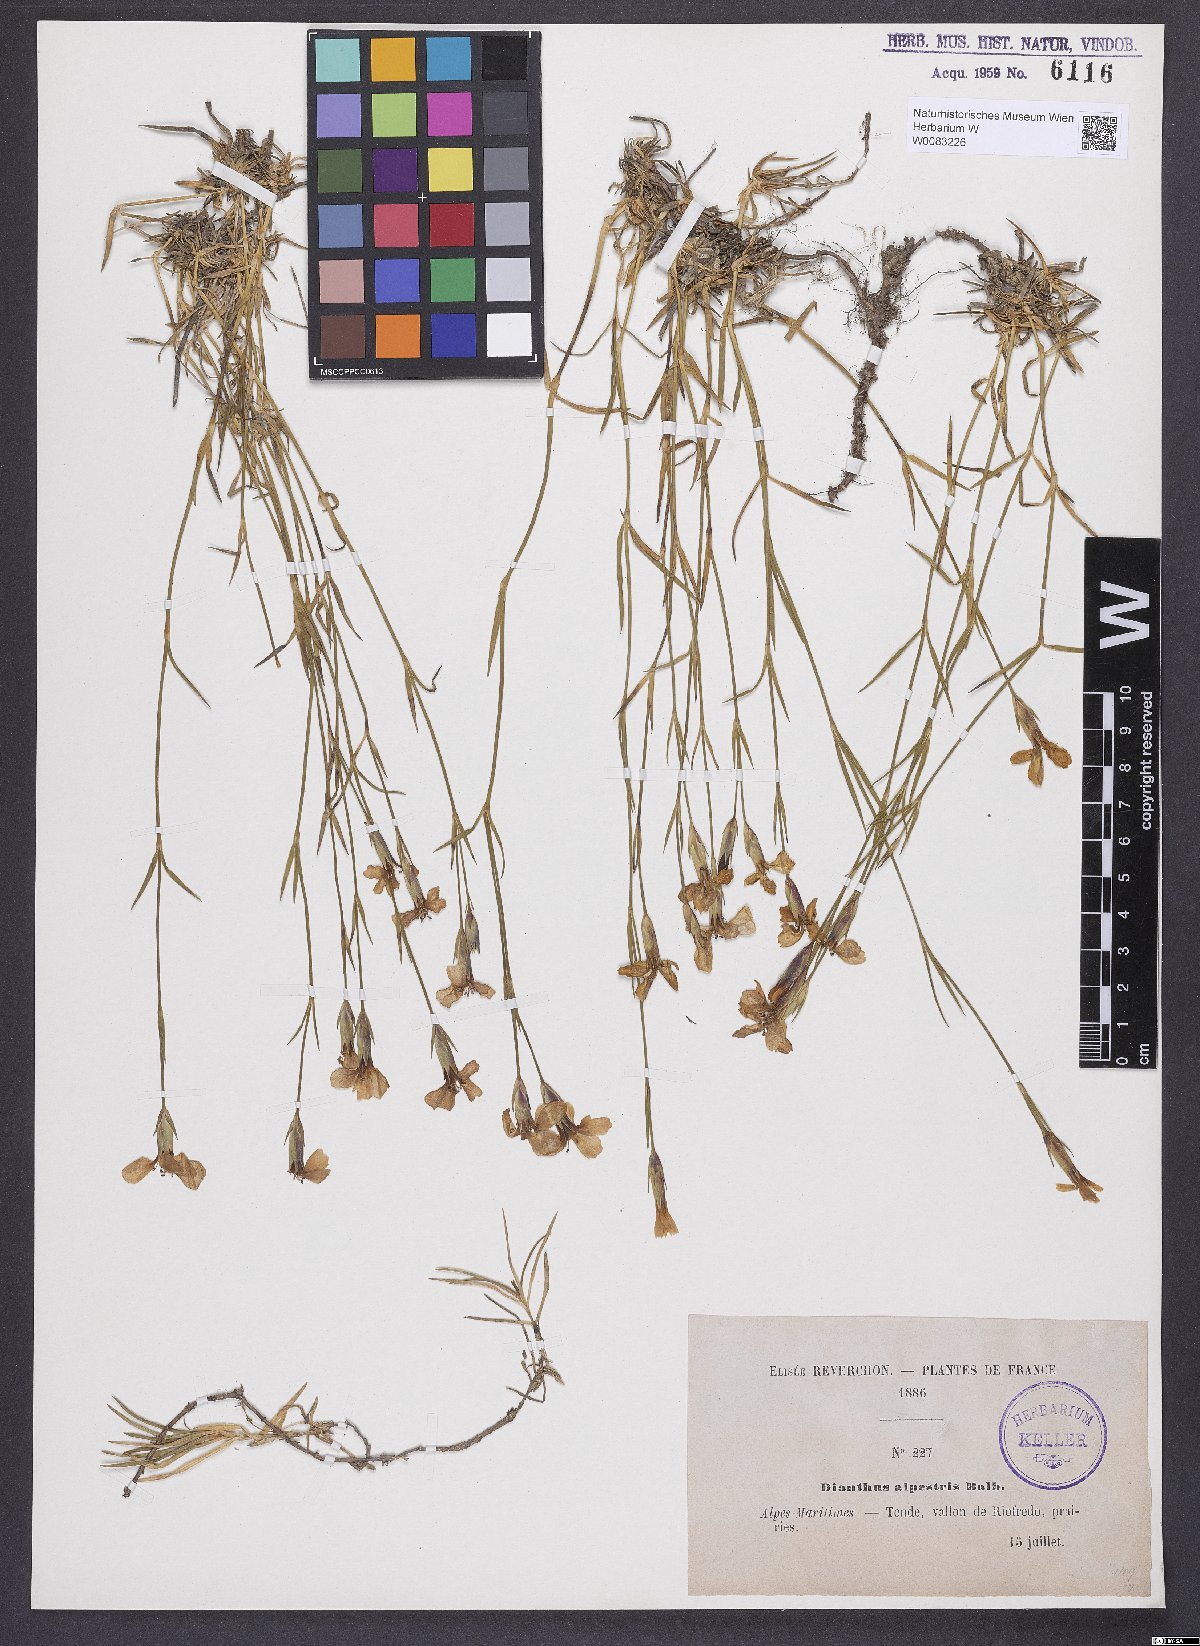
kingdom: Plantae
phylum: Tracheophyta
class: Magnoliopsida
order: Caryophyllales
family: Caryophyllaceae
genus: Dianthus
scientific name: Dianthus furcatus
